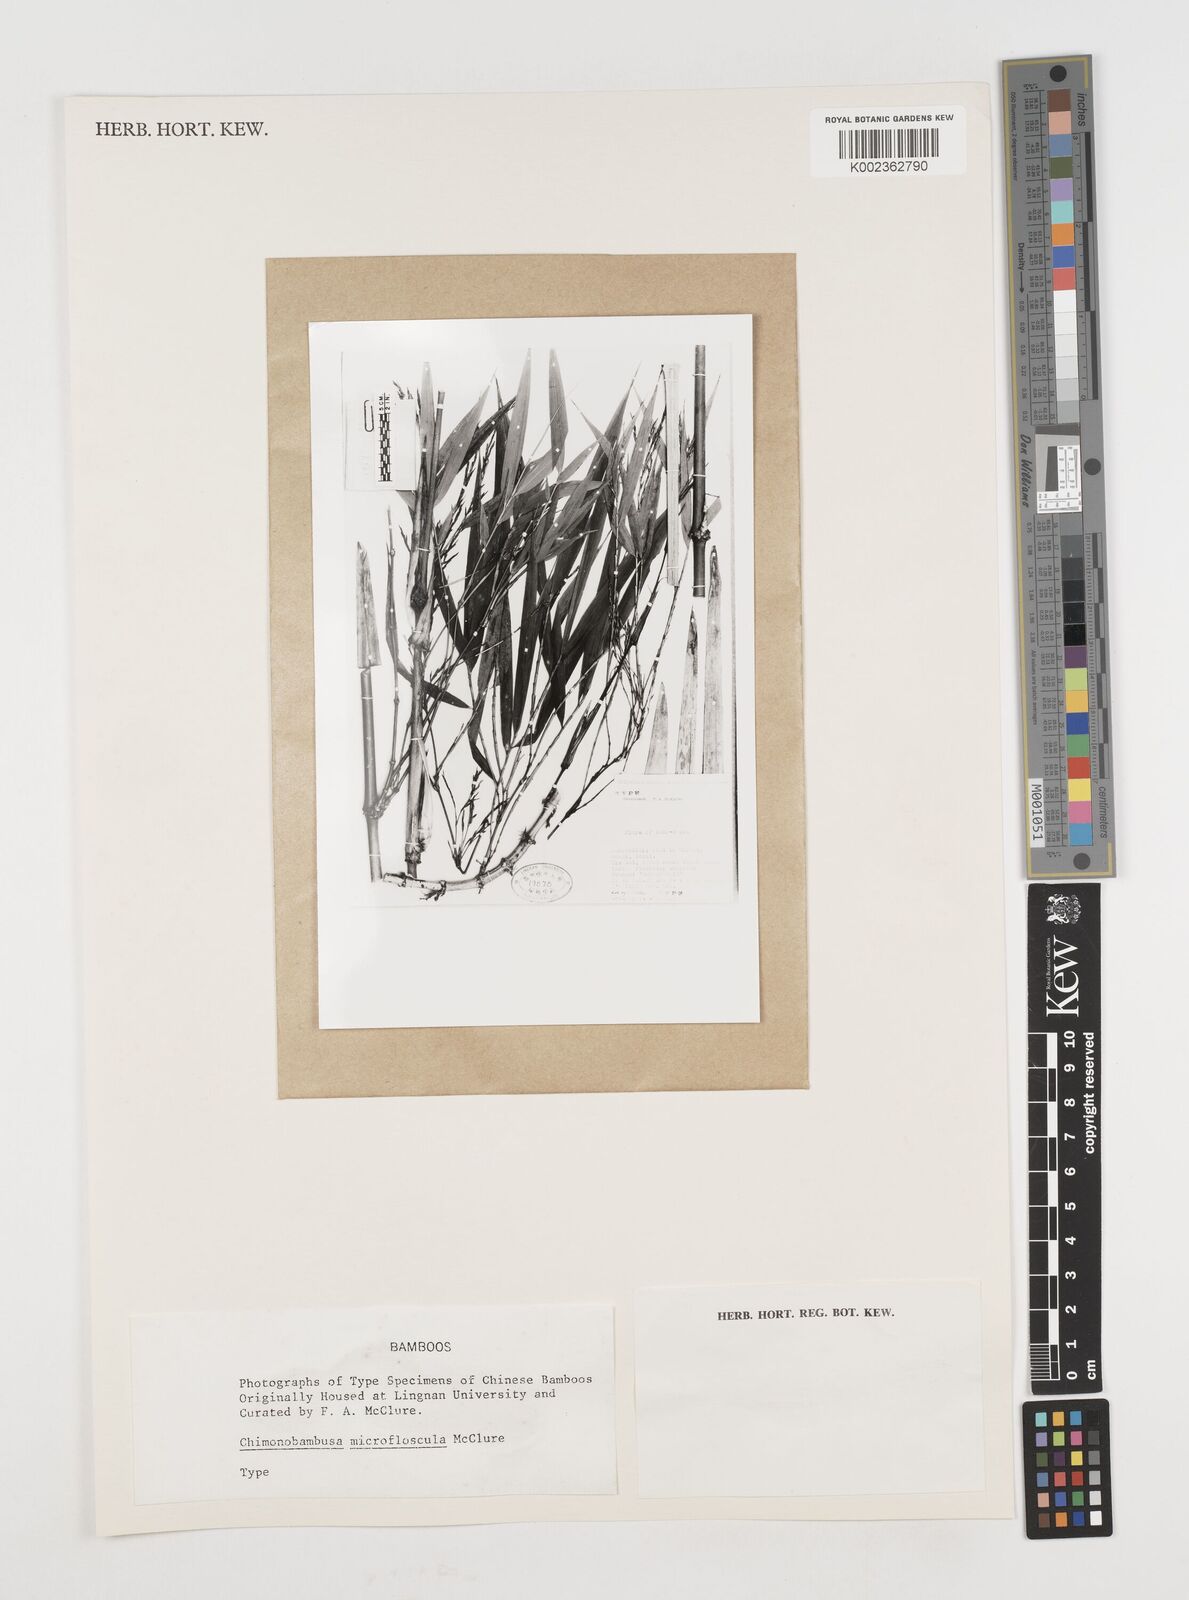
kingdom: Plantae
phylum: Tracheophyta
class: Liliopsida
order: Poales
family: Poaceae
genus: Chimonobambusa
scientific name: Chimonobambusa microfloscula
